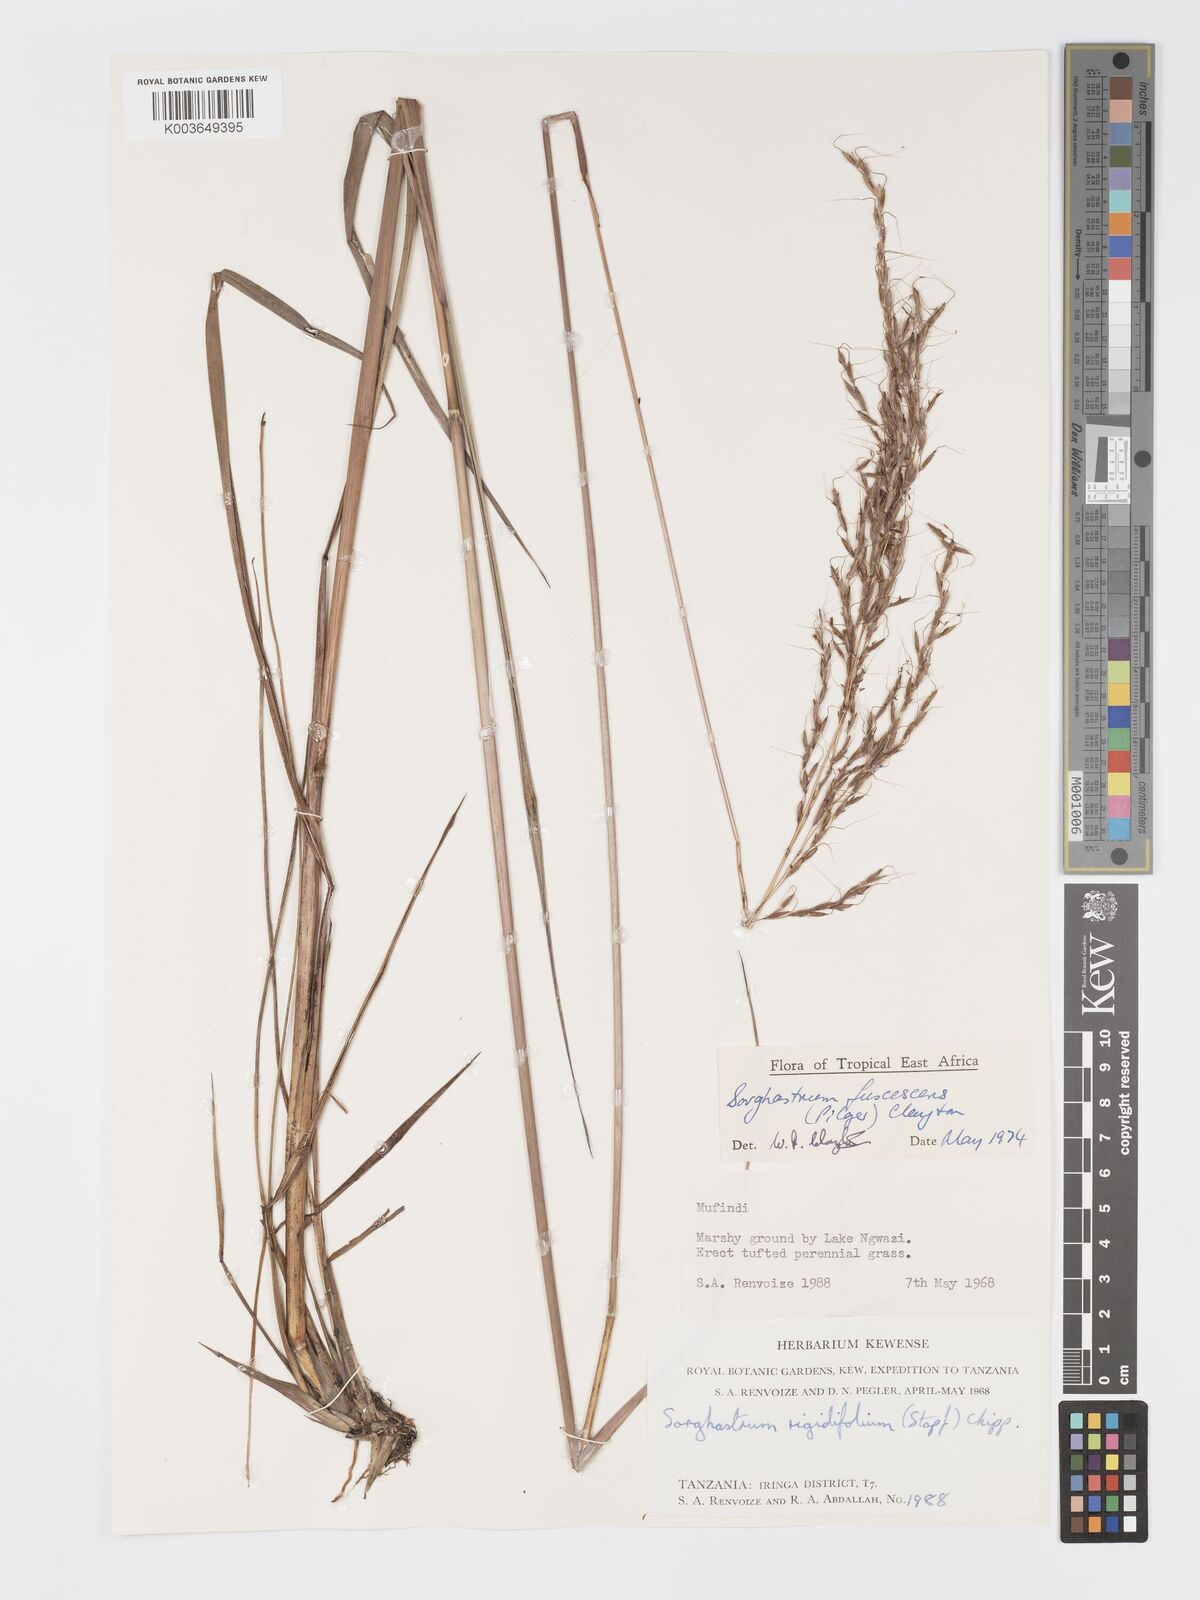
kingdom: Plantae
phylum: Tracheophyta
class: Liliopsida
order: Poales
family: Poaceae
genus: Sorghastrum
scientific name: Sorghastrum fuscescens
